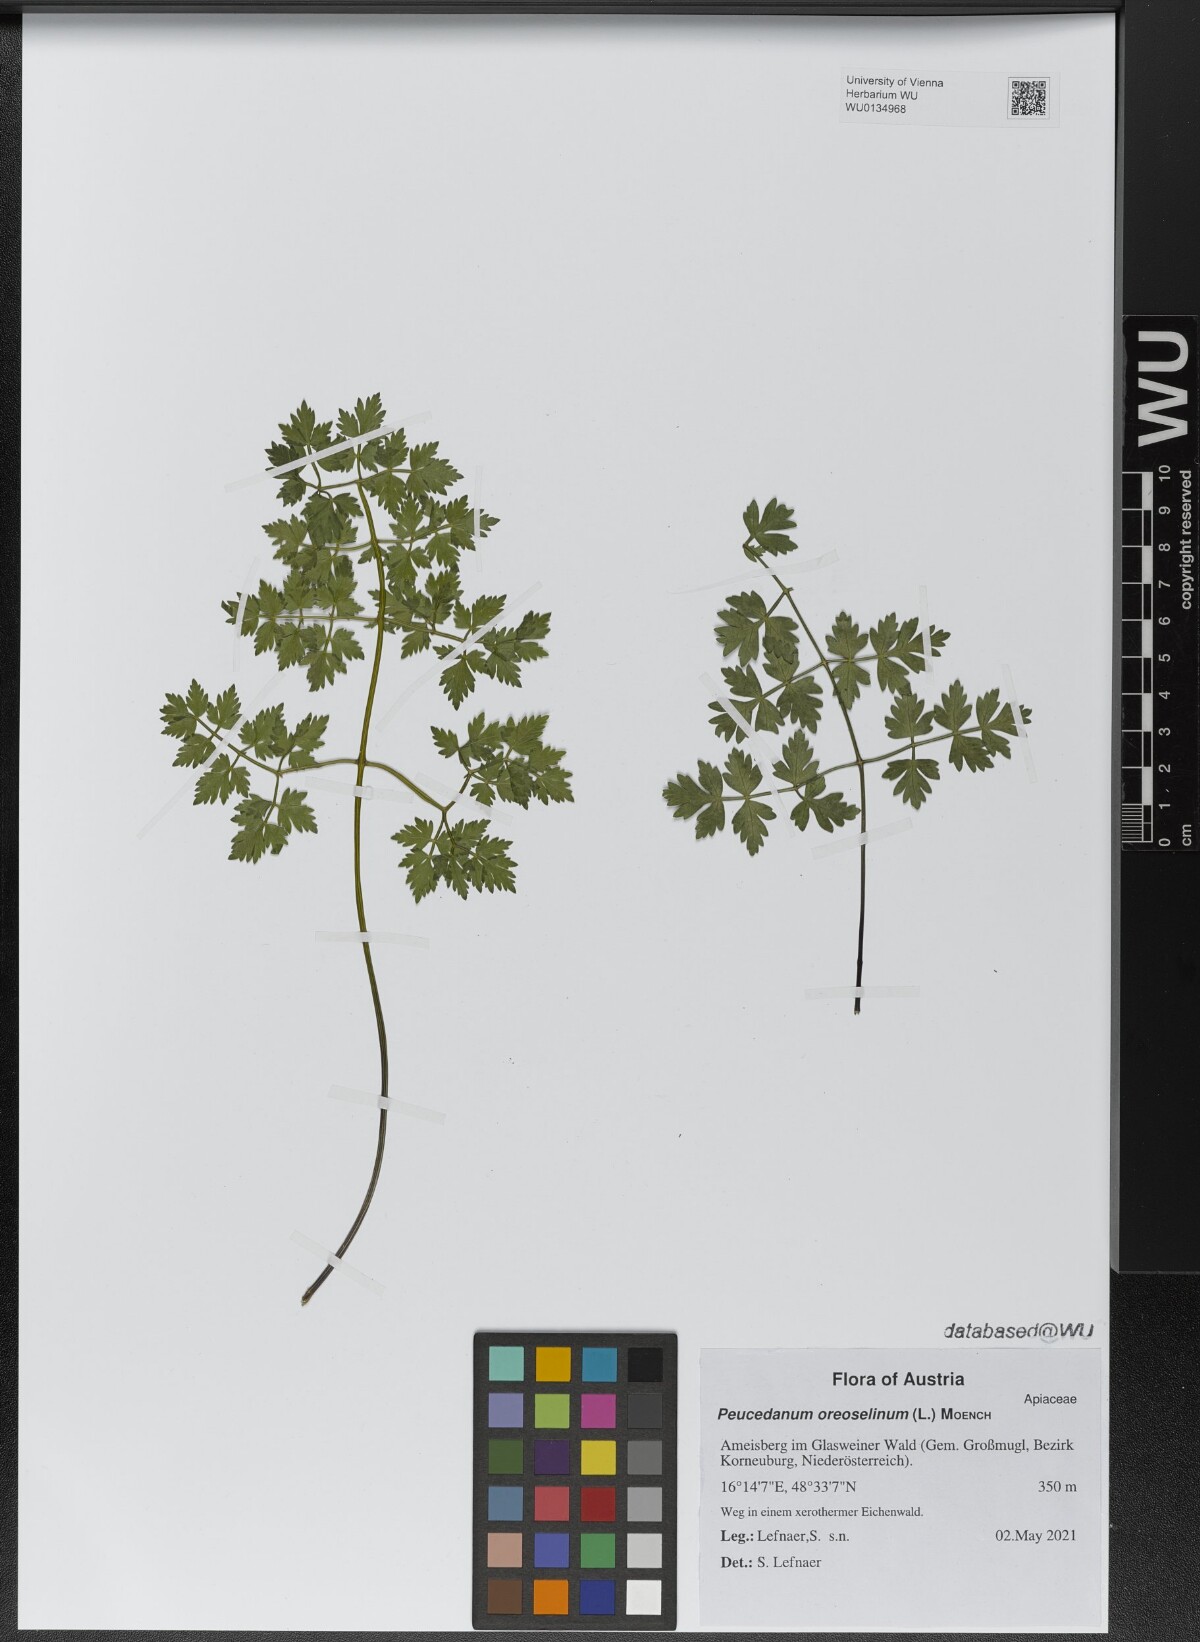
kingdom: Plantae
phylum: Tracheophyta
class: Magnoliopsida
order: Apiales
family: Apiaceae
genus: Oreoselinum
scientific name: Oreoselinum nigrum
